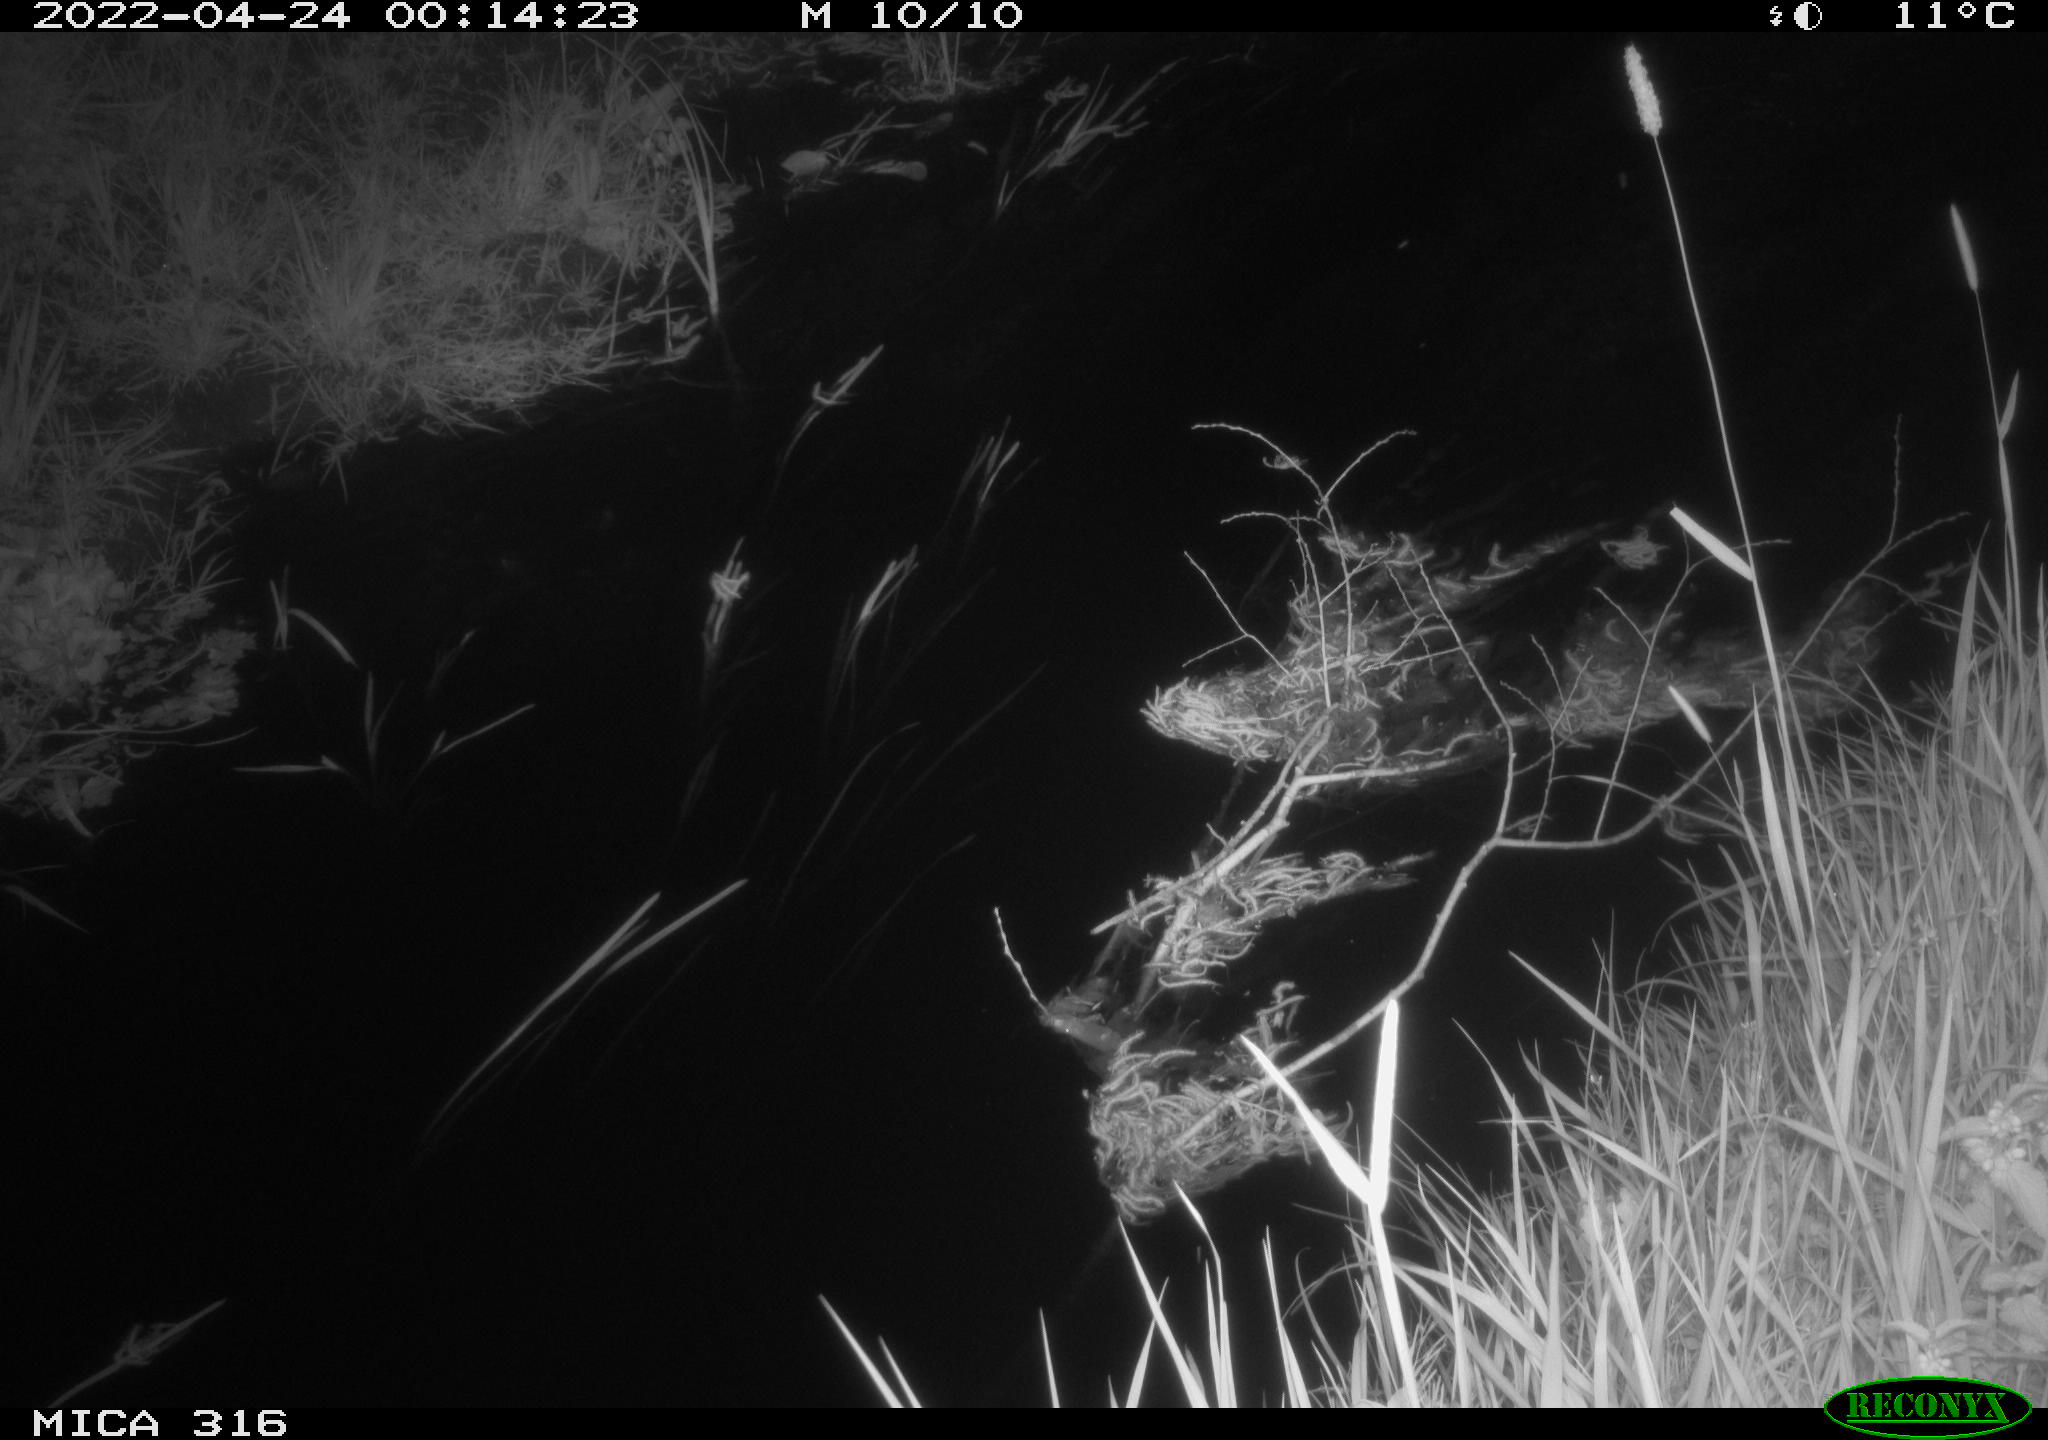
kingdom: Animalia
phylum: Chordata
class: Aves
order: Anseriformes
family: Anatidae
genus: Anas
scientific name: Anas platyrhynchos
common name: Mallard
